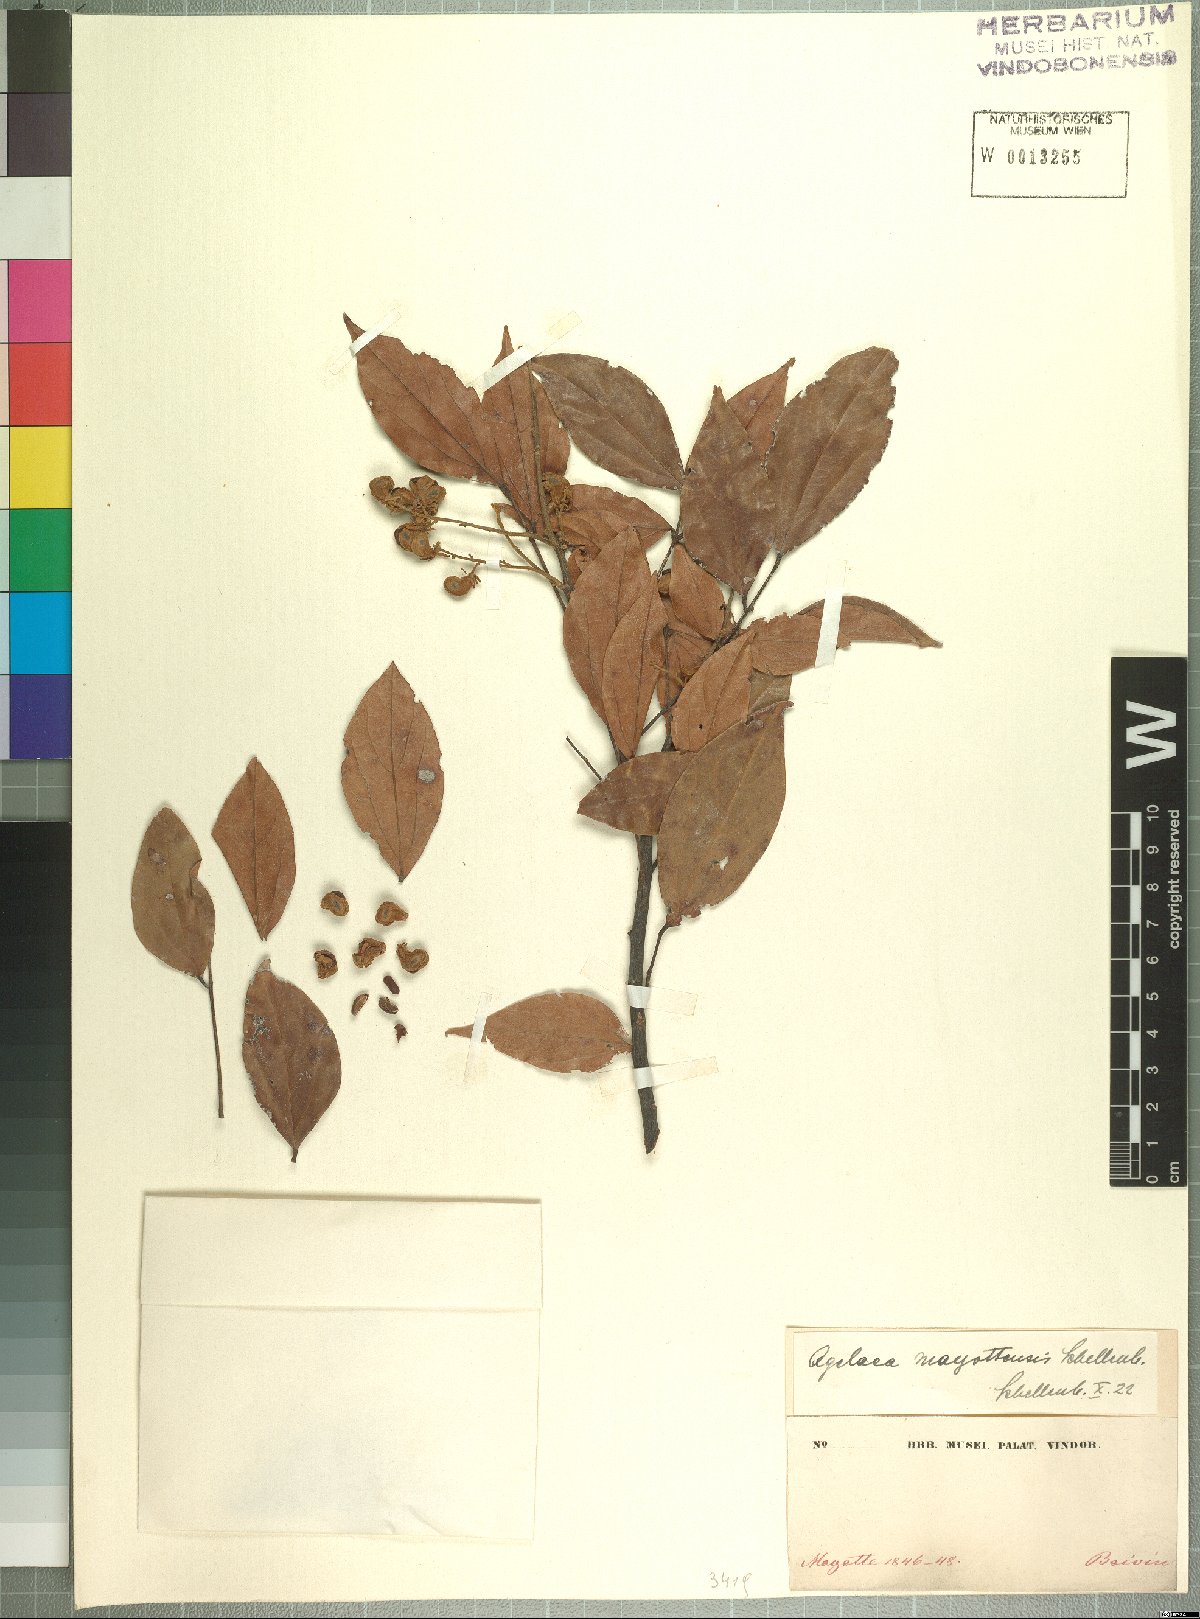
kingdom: Plantae
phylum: Tracheophyta
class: Magnoliopsida
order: Oxalidales
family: Connaraceae
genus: Agelaea
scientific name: Agelaea pentagyna
